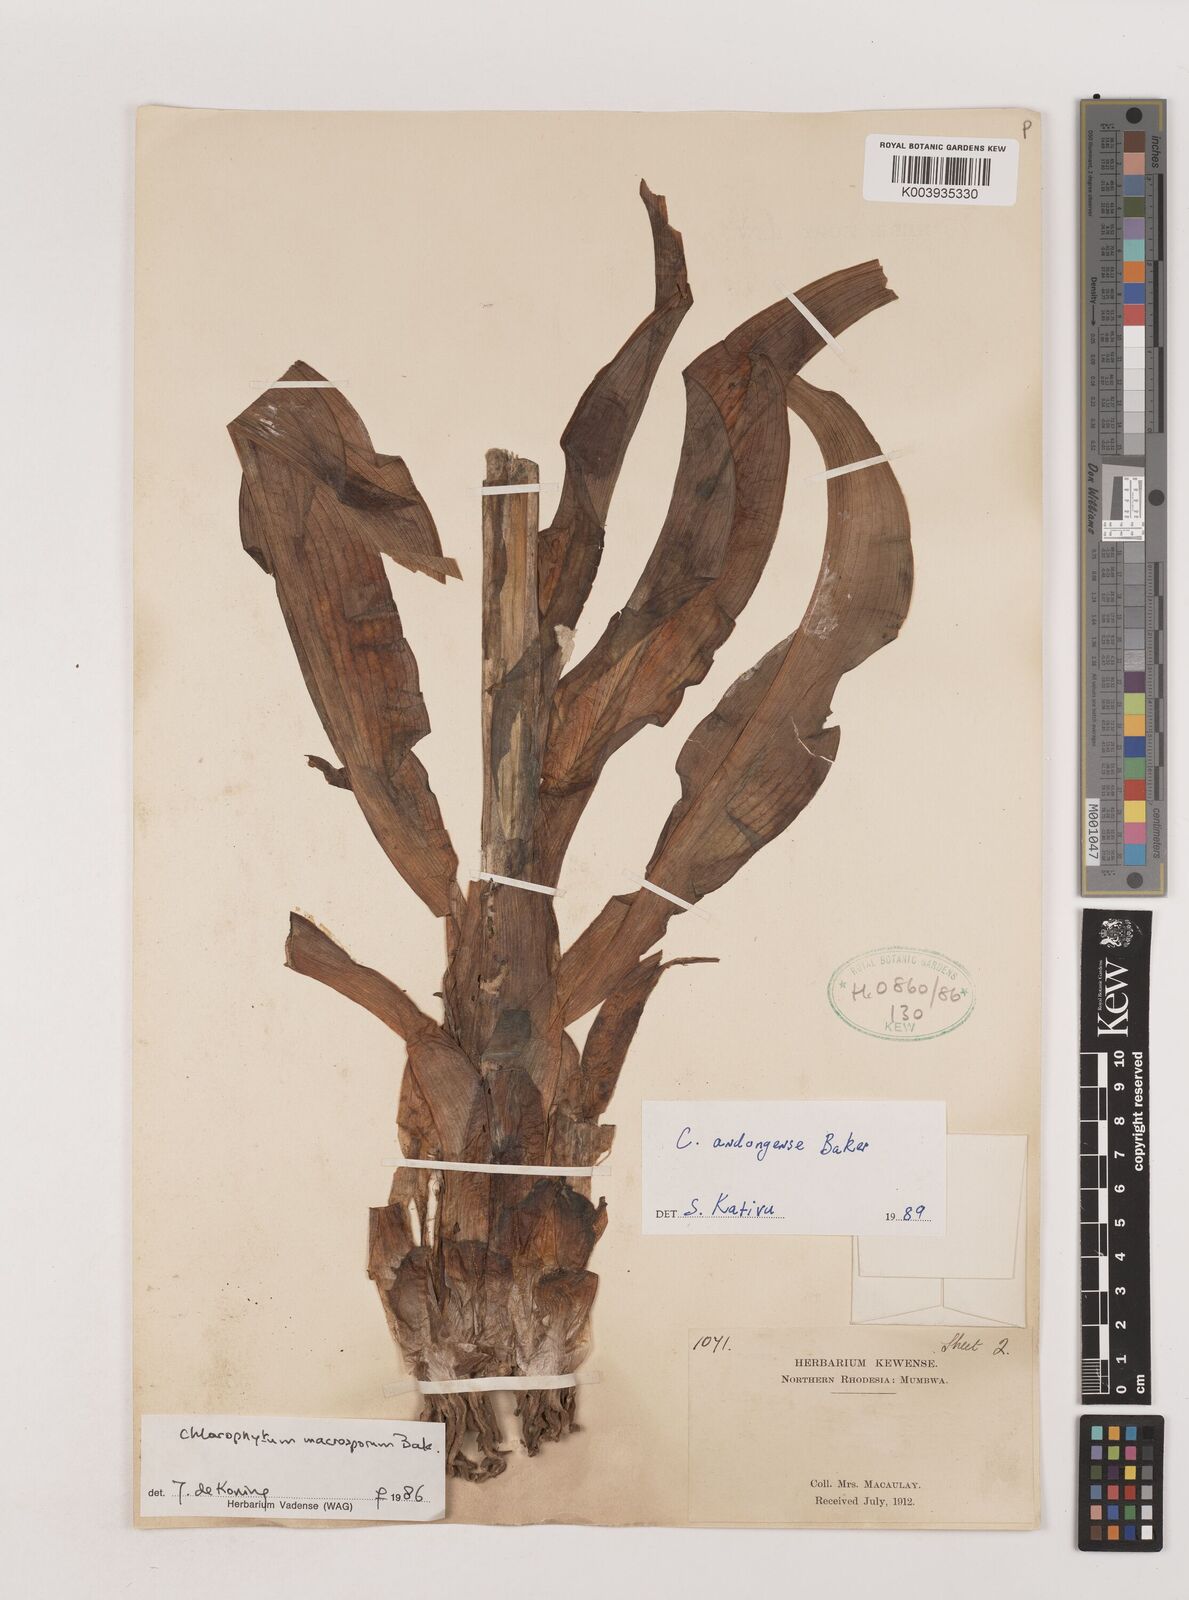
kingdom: Plantae
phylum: Tracheophyta
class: Liliopsida
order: Asparagales
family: Asparagaceae
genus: Chlorophytum
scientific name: Chlorophytum andongense
